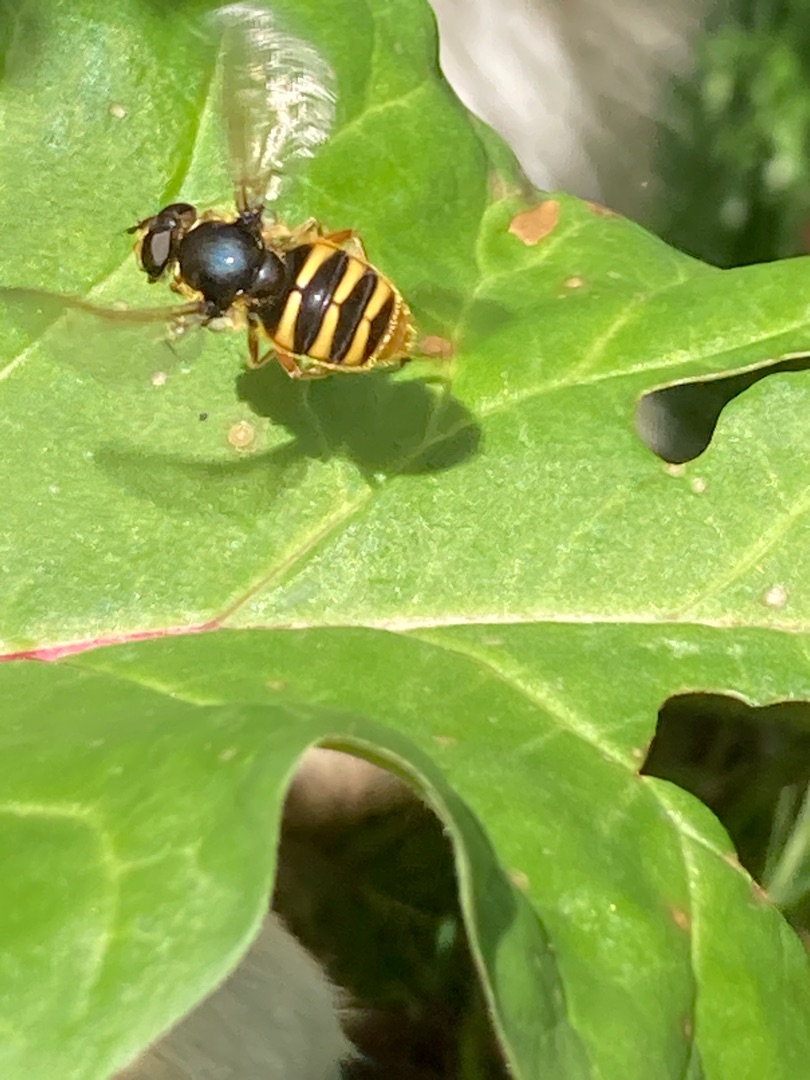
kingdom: Animalia
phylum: Arthropoda
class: Insecta
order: Diptera
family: Syrphidae
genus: Sericomyia
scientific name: Sericomyia silentis
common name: Tørve-silkesvirreflue
